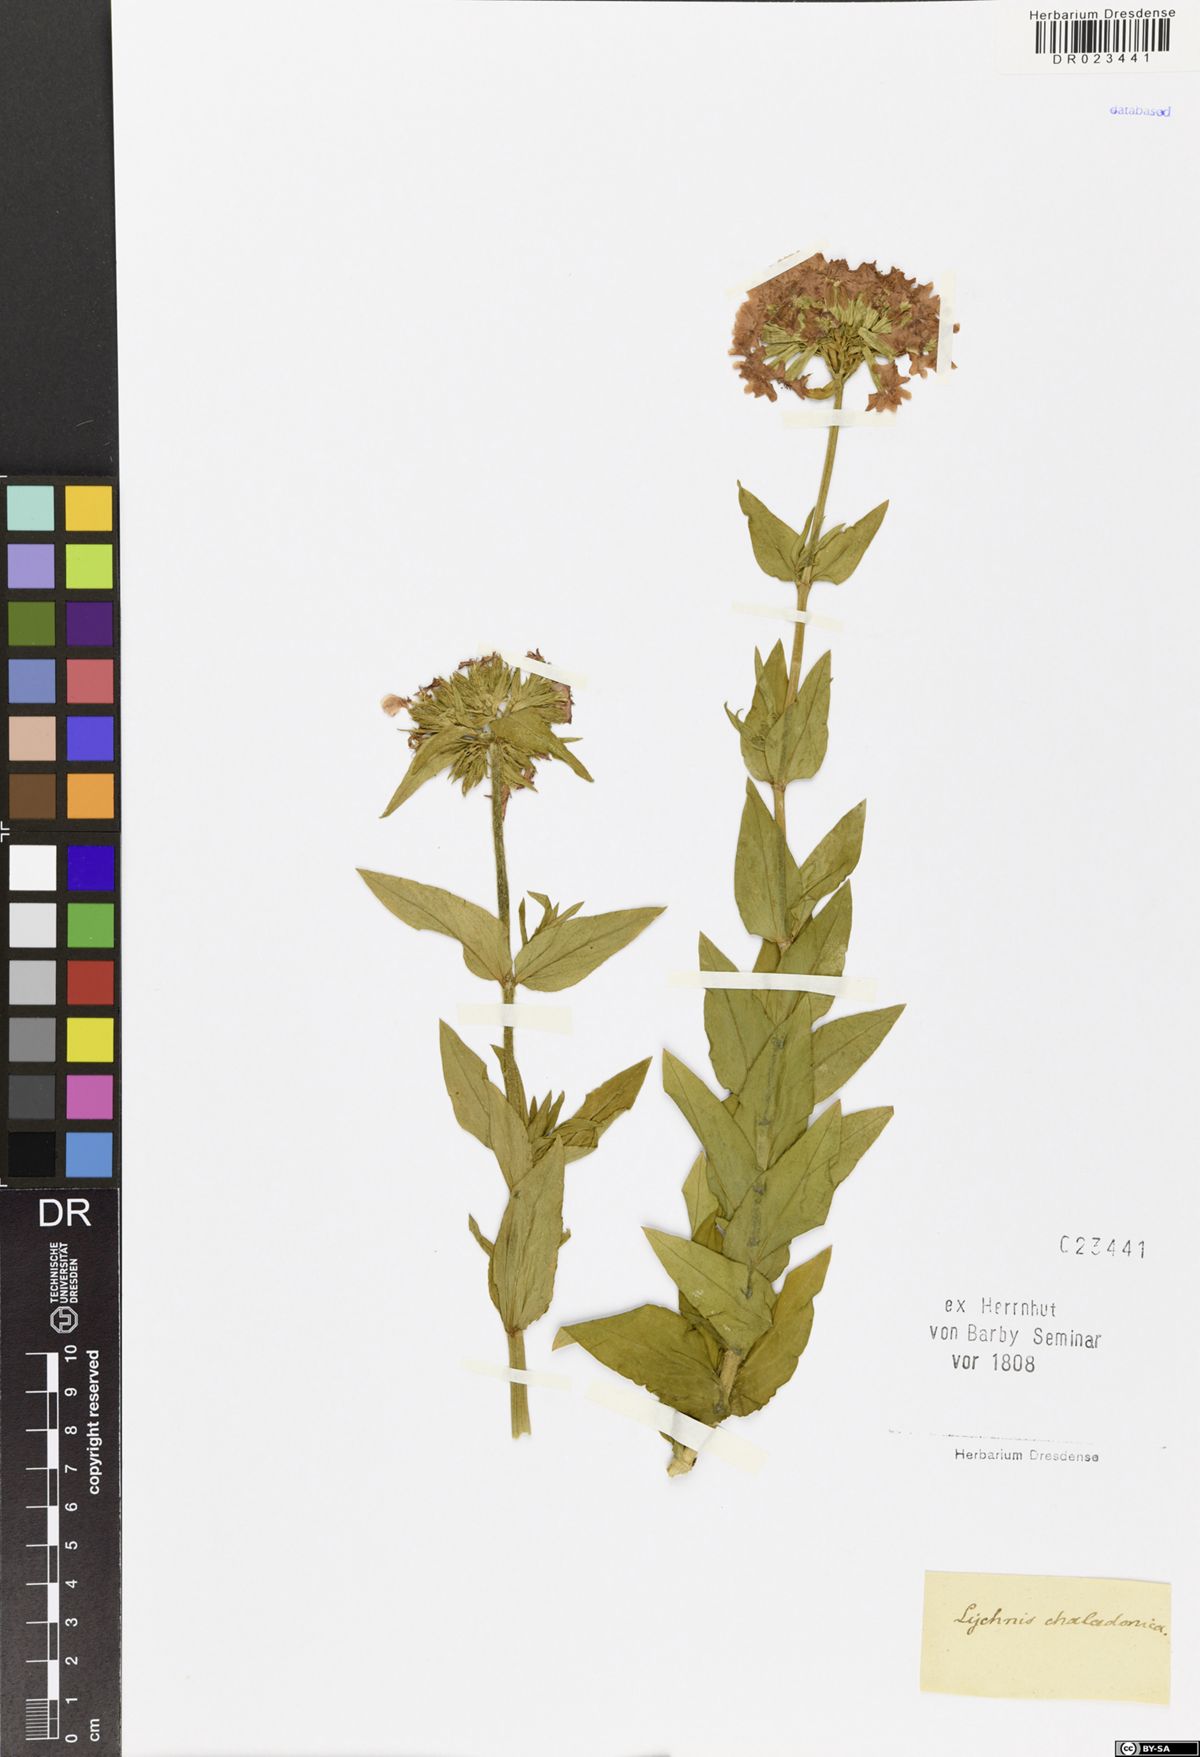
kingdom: Plantae
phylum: Tracheophyta
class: Magnoliopsida
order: Caryophyllales
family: Caryophyllaceae
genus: Silene
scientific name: Silene chalcedonica
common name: Maltese-cross
